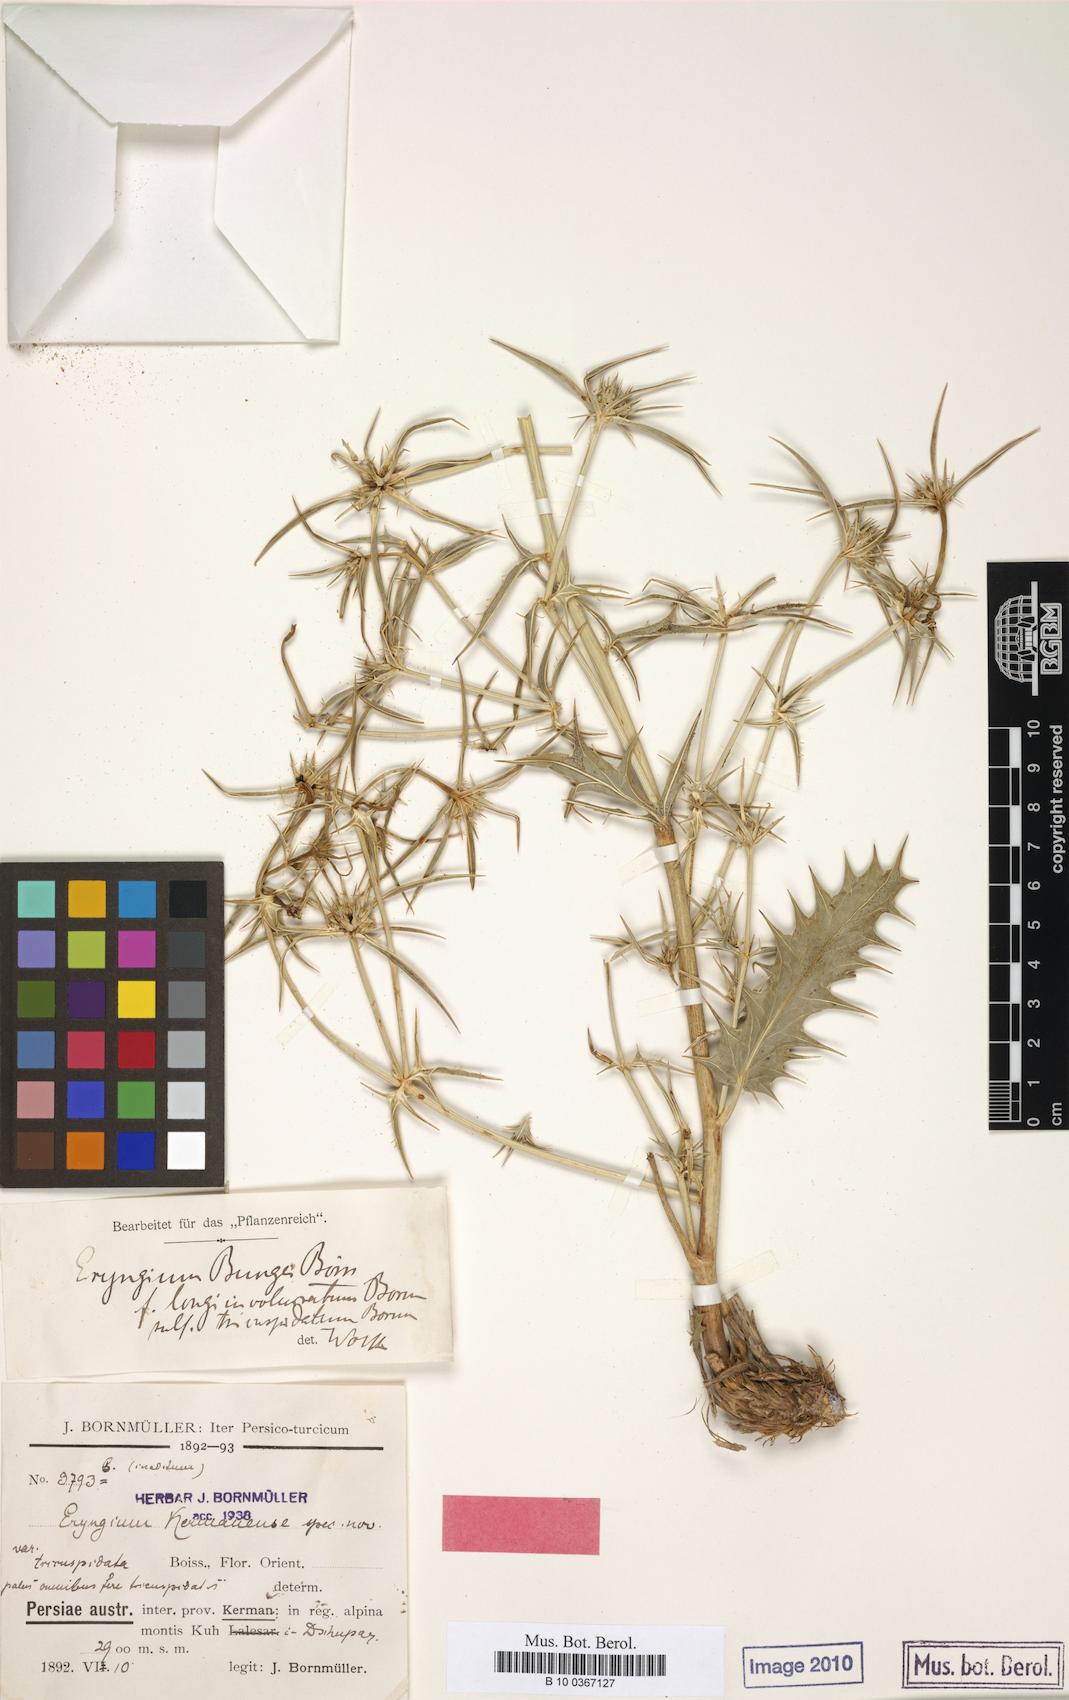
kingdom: Plantae
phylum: Tracheophyta
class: Magnoliopsida
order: Apiales
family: Apiaceae
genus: Eryngium
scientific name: Eryngium bungei
